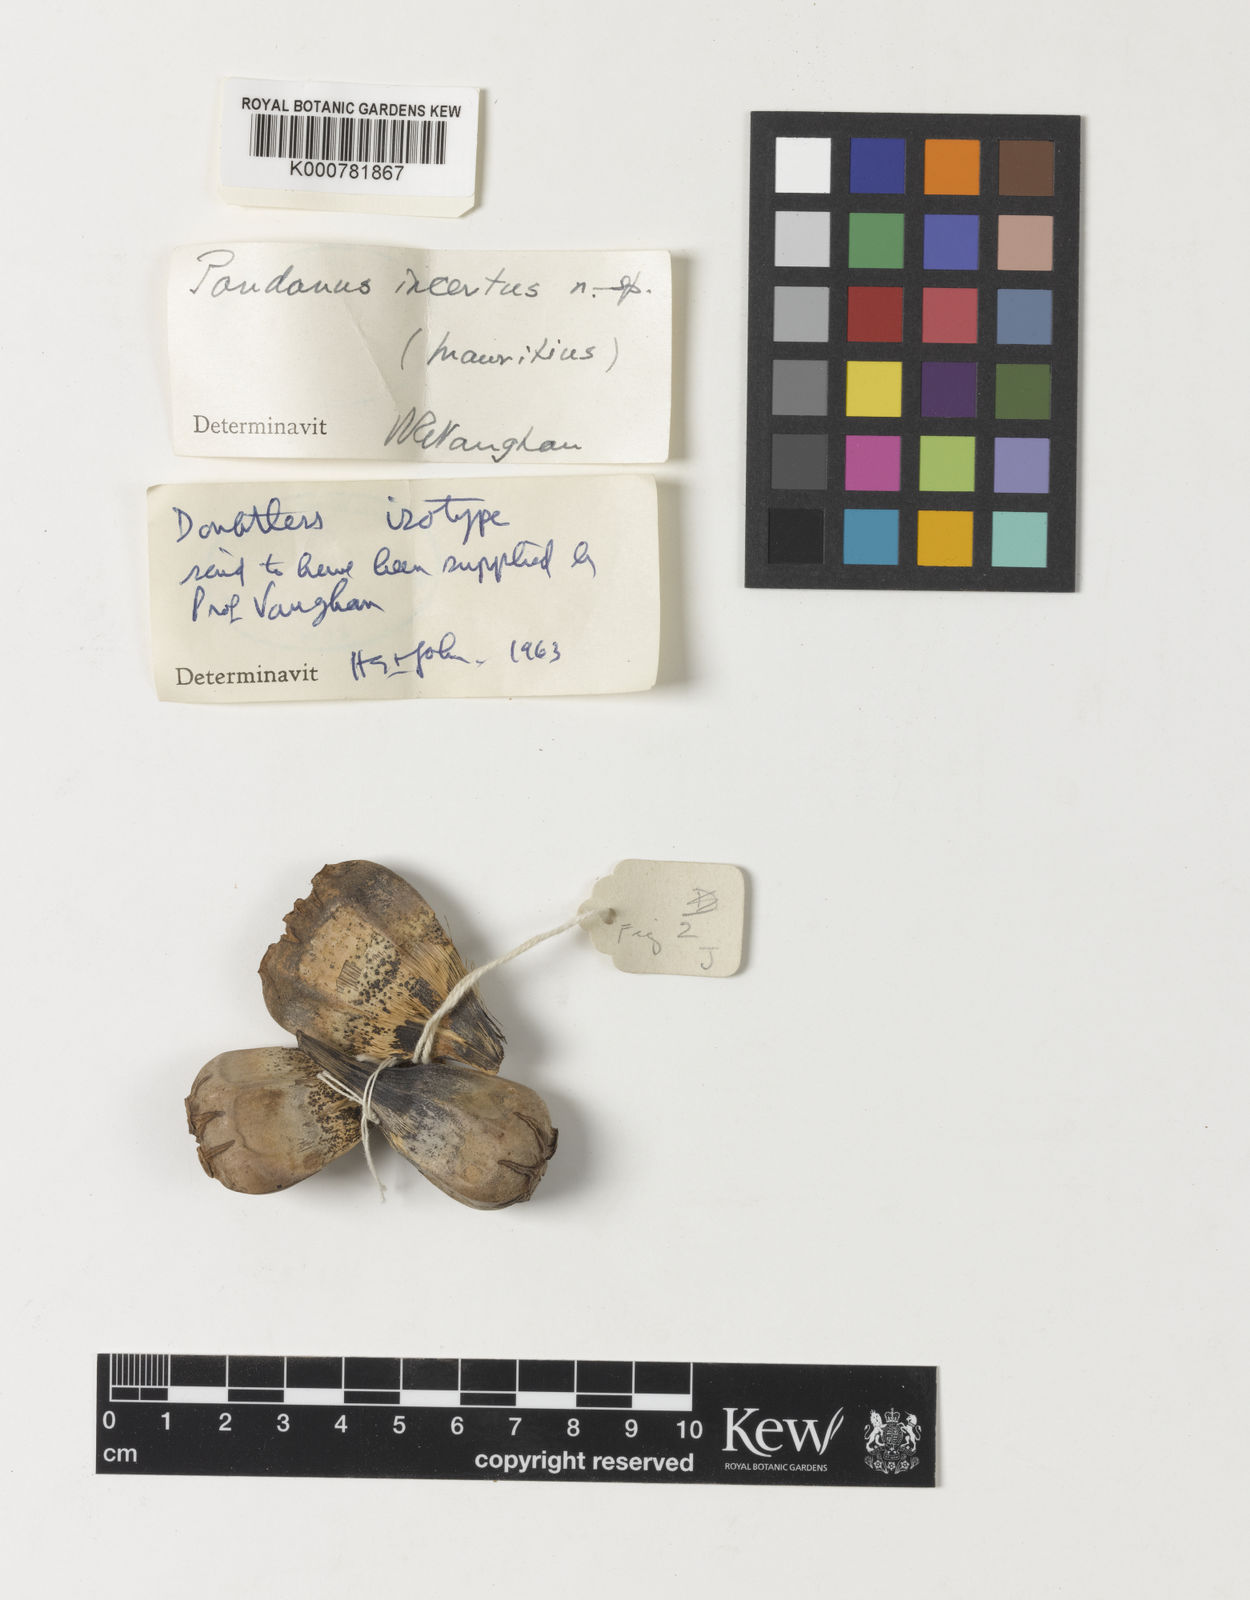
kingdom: Plantae
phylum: Tracheophyta
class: Liliopsida
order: Pandanales
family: Pandanaceae
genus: Pandanus
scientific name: Pandanus incertus
